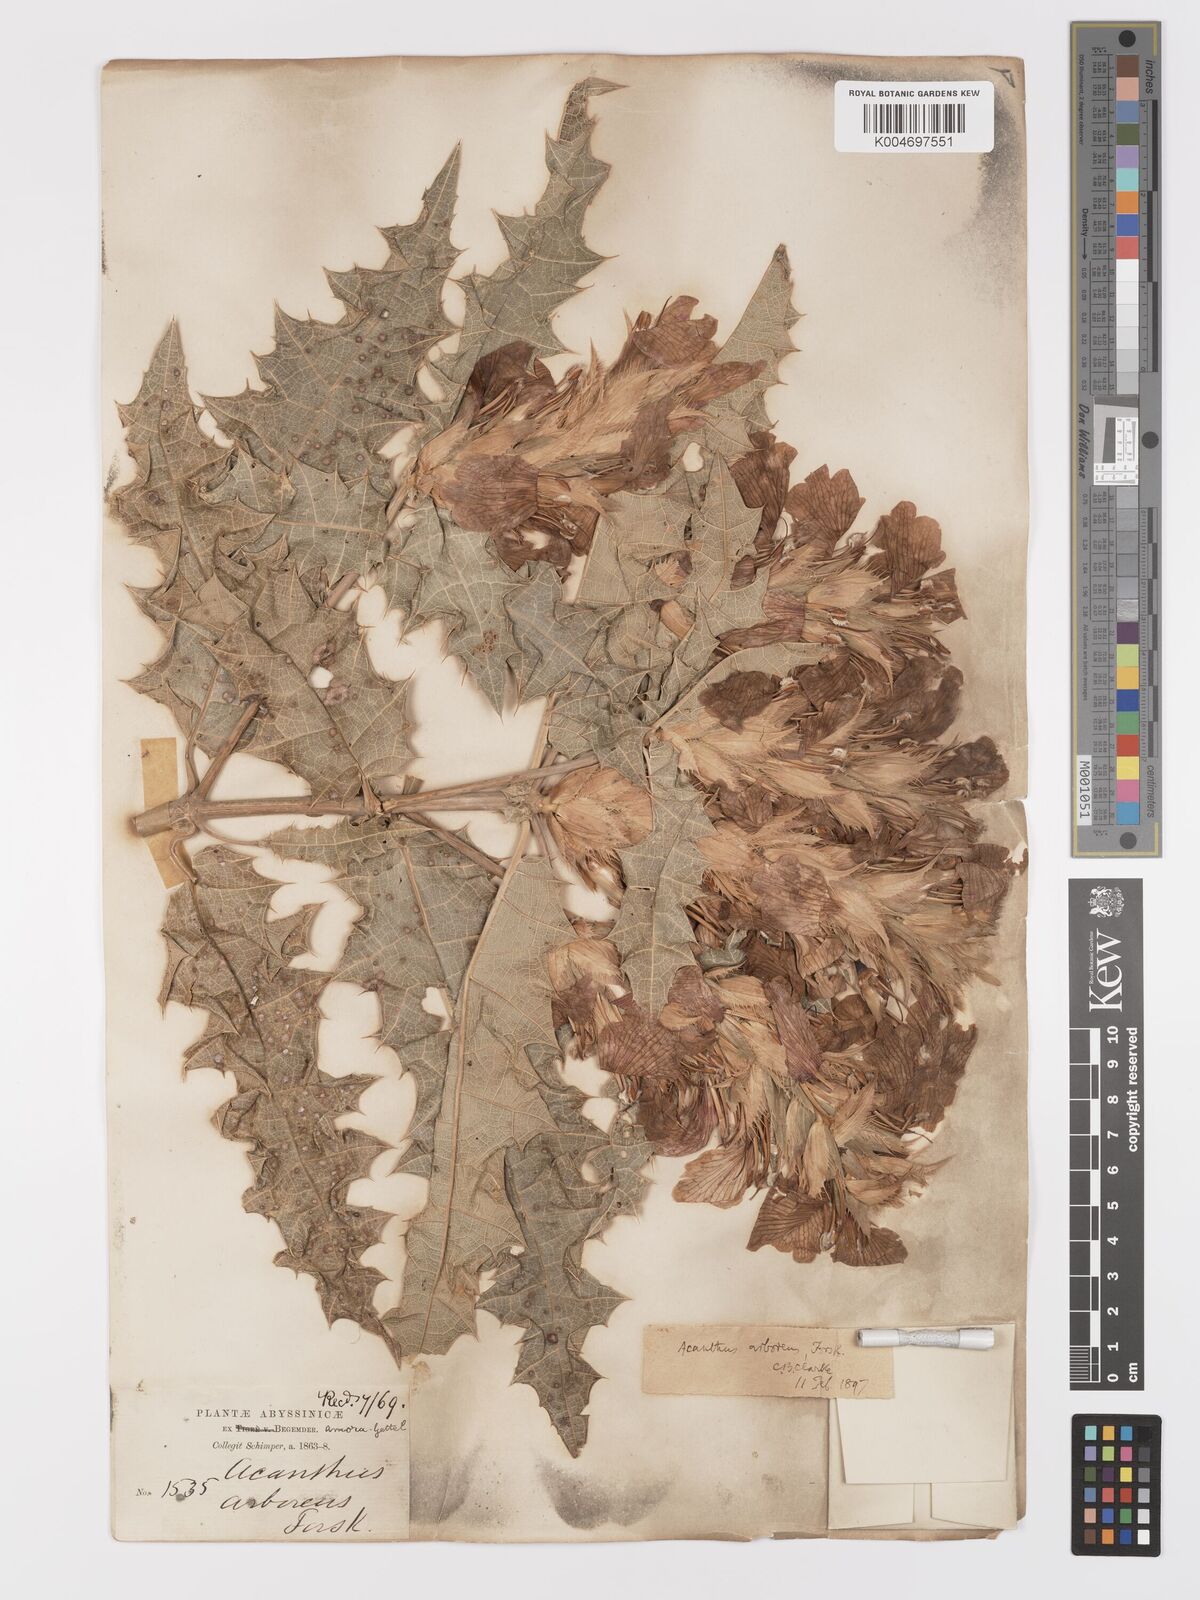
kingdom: Plantae
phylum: Tracheophyta
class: Magnoliopsida
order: Lamiales
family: Acanthaceae
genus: Acanthus
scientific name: Acanthus polystachyus
